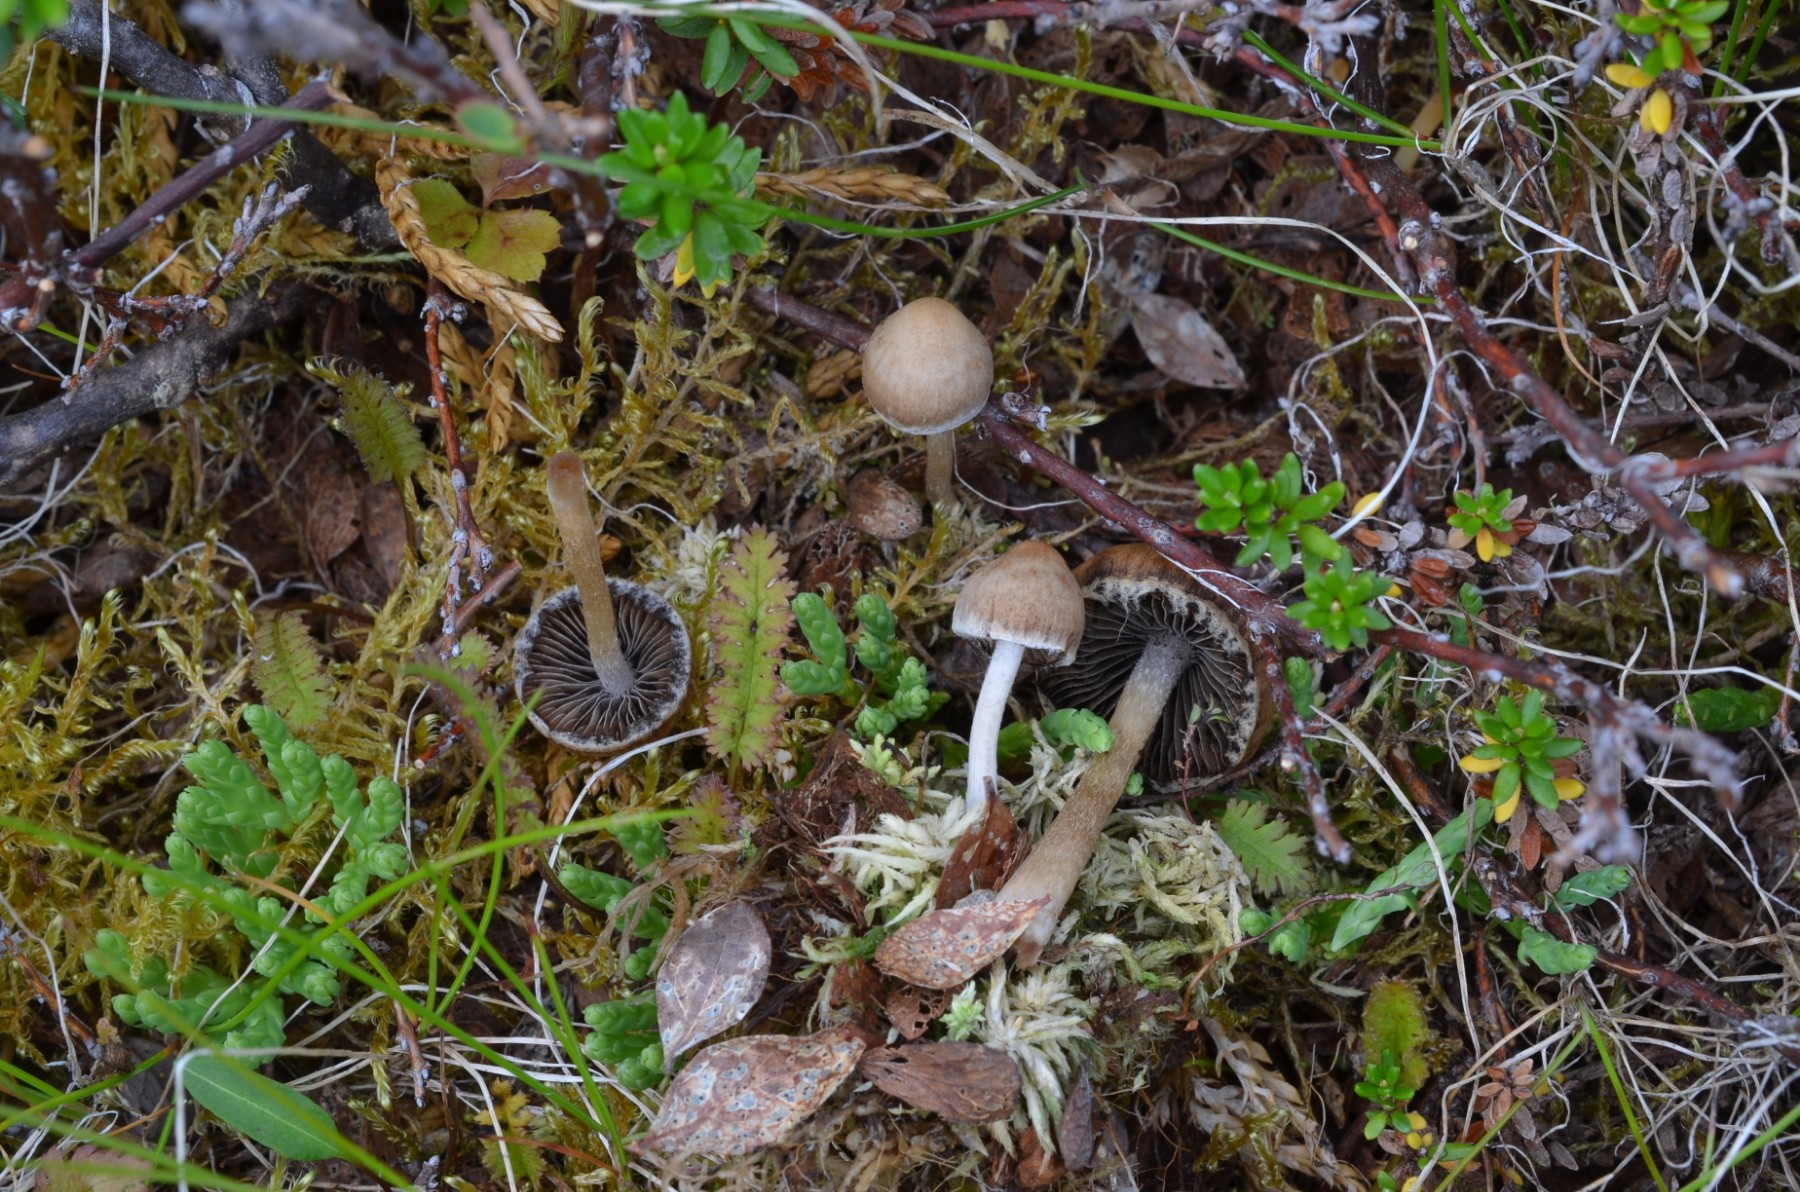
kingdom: Fungi
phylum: Basidiomycota
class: Agaricomycetes
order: Agaricales
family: Psathyrellaceae
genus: Psathyrella
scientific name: Psathyrella
